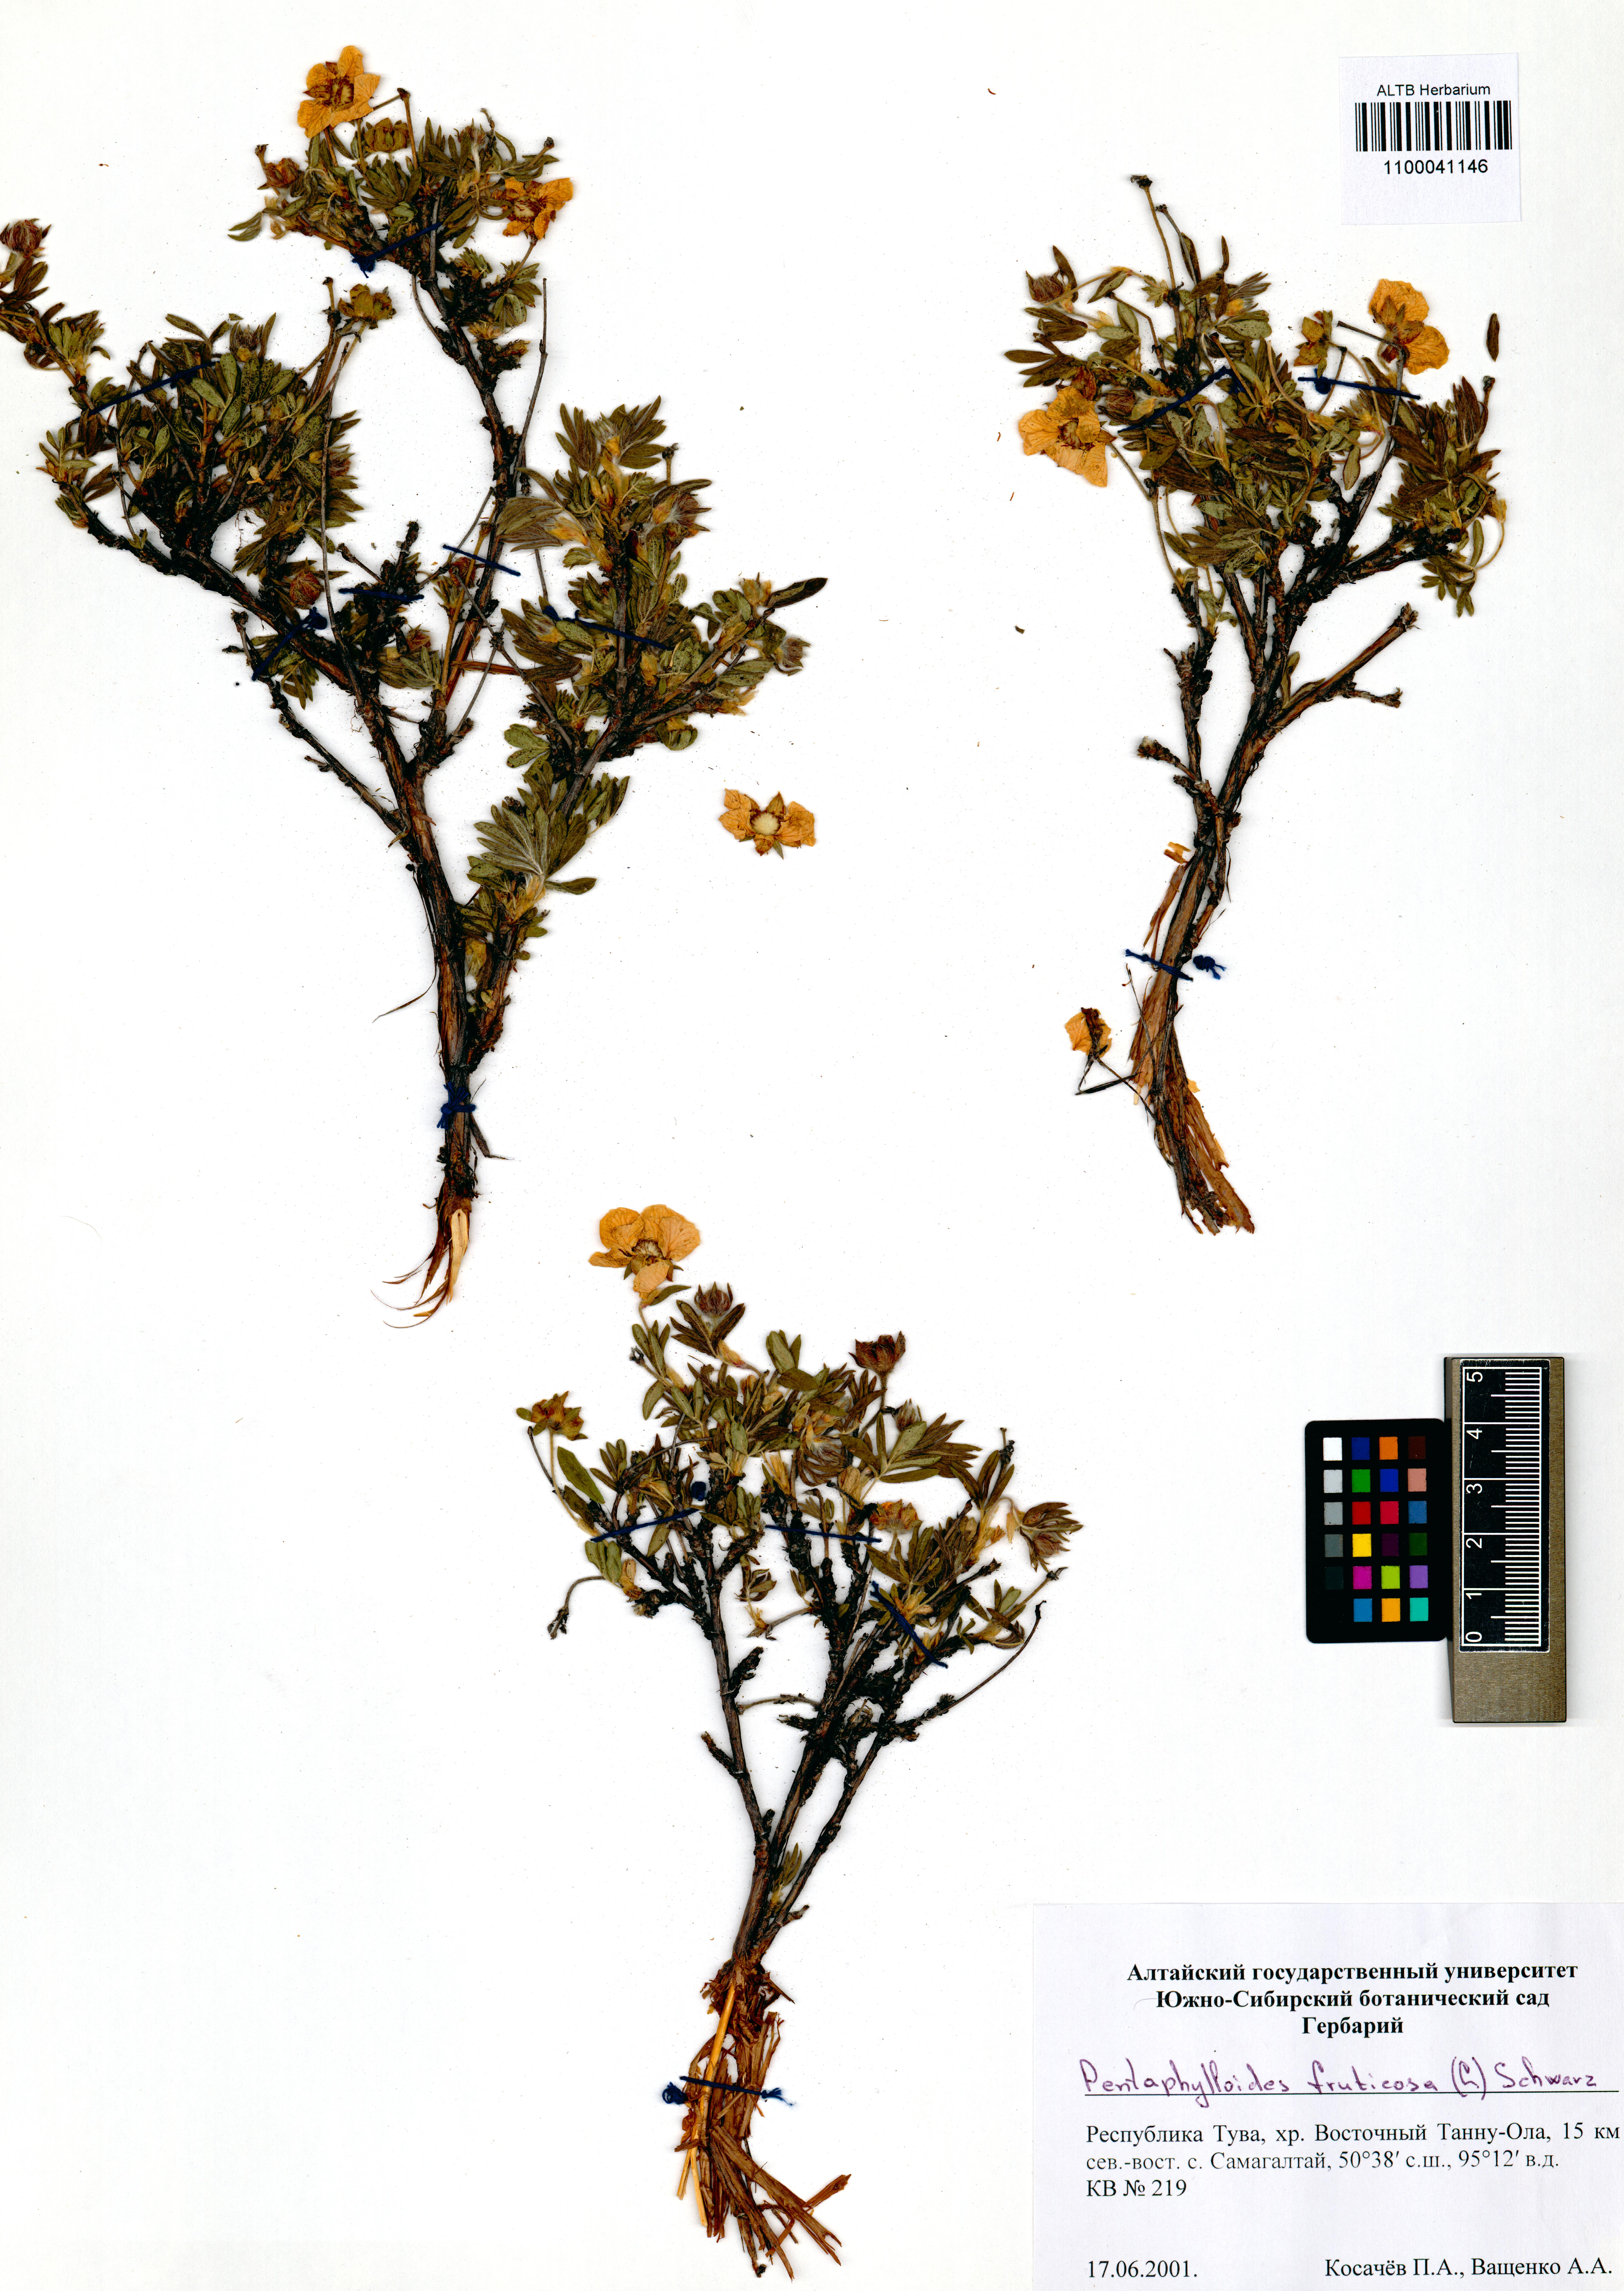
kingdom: Plantae
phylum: Tracheophyta
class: Magnoliopsida
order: Rosales
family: Rosaceae
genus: Dasiphora
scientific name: Dasiphora fruticosa
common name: Shrubby cinquefoil
